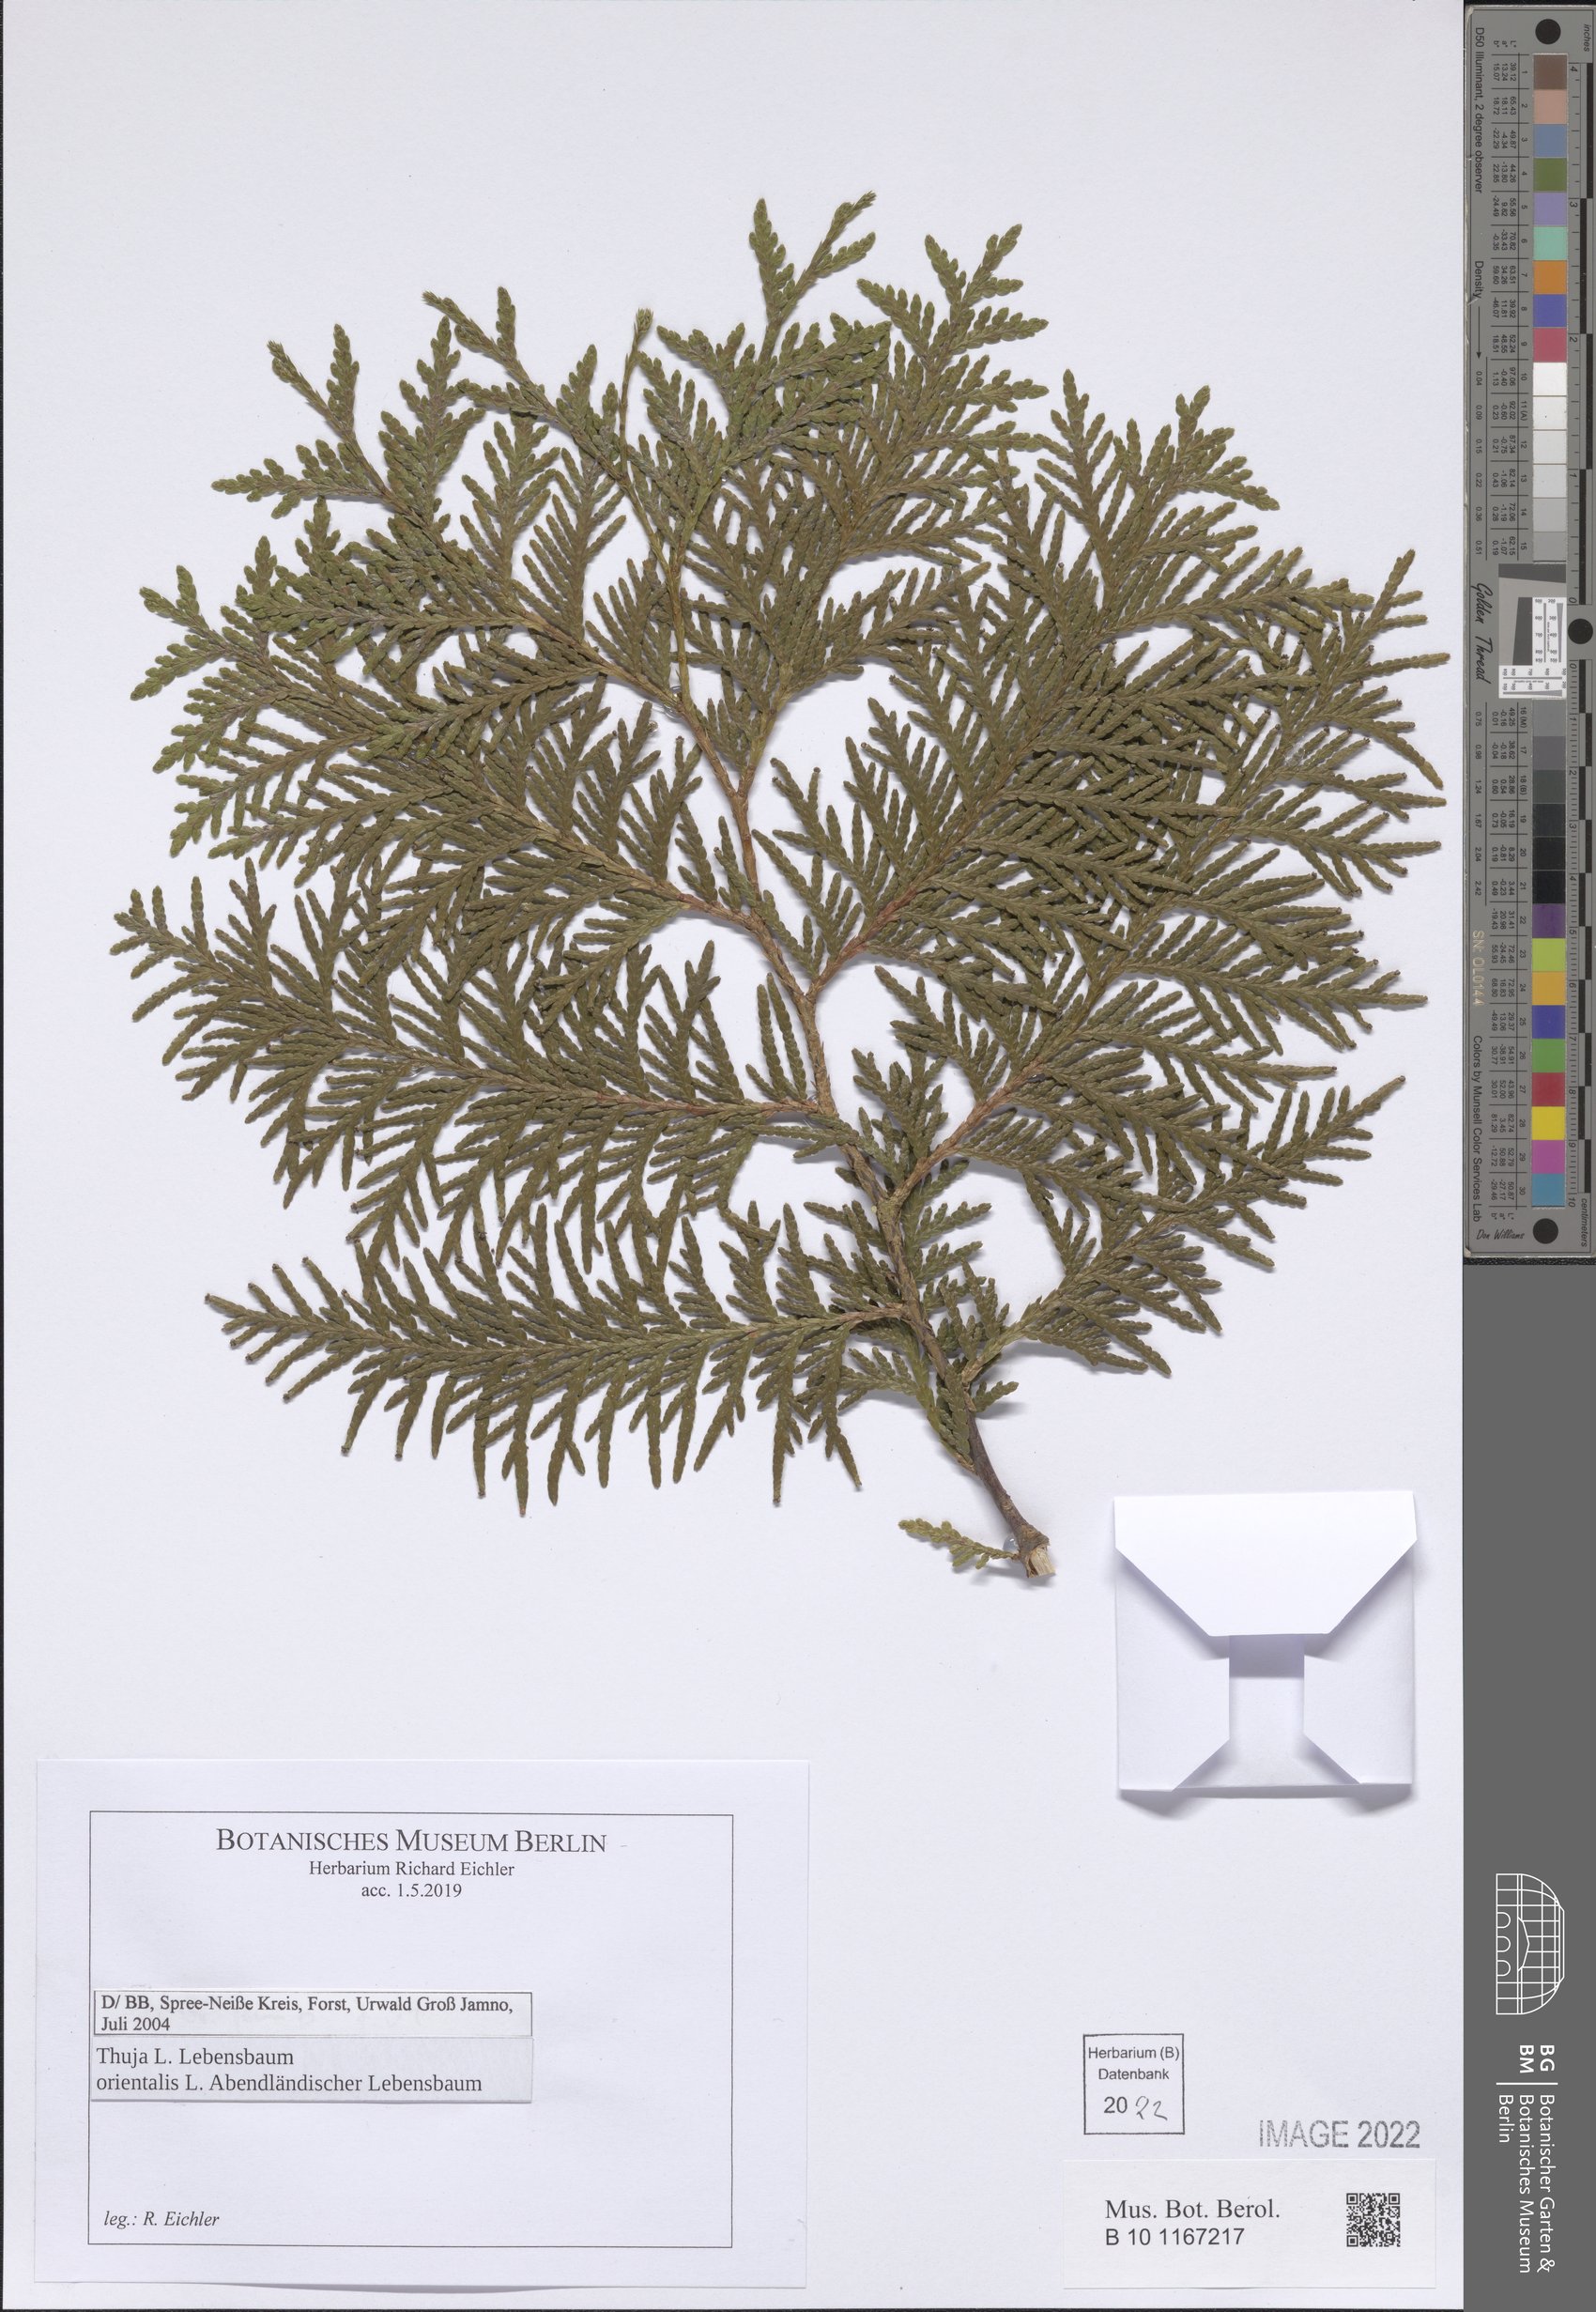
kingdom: Plantae
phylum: Tracheophyta
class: Pinopsida
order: Pinales
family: Cupressaceae
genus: Platycladus
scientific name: Platycladus orientalis
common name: Chinese thuja
